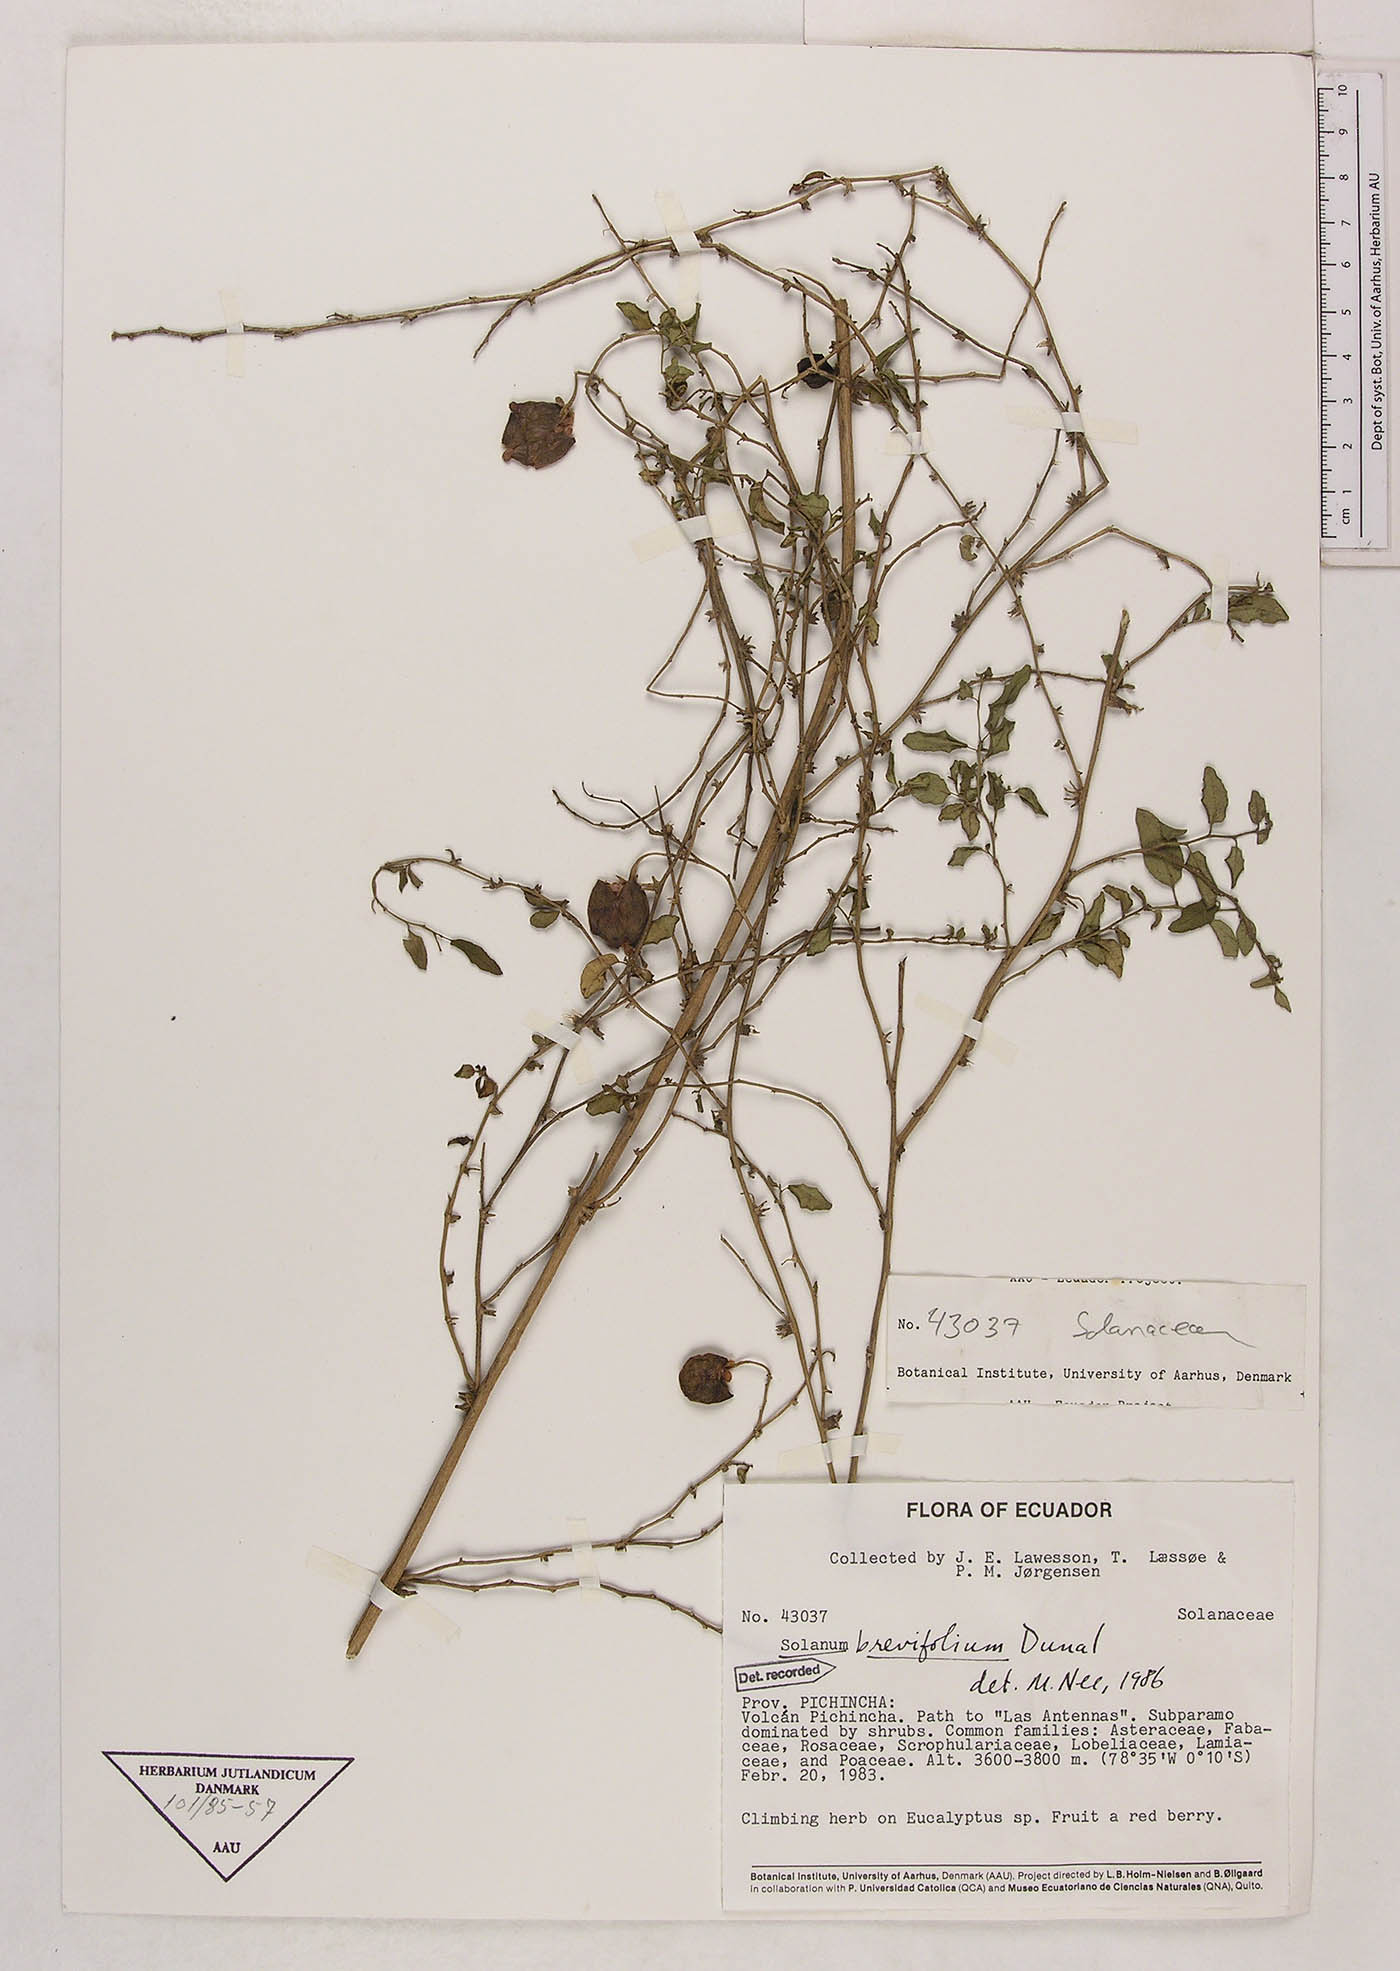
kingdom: Plantae
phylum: Tracheophyta
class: Magnoliopsida
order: Solanales
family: Solanaceae
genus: Solanum
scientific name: Solanum brevifolium
